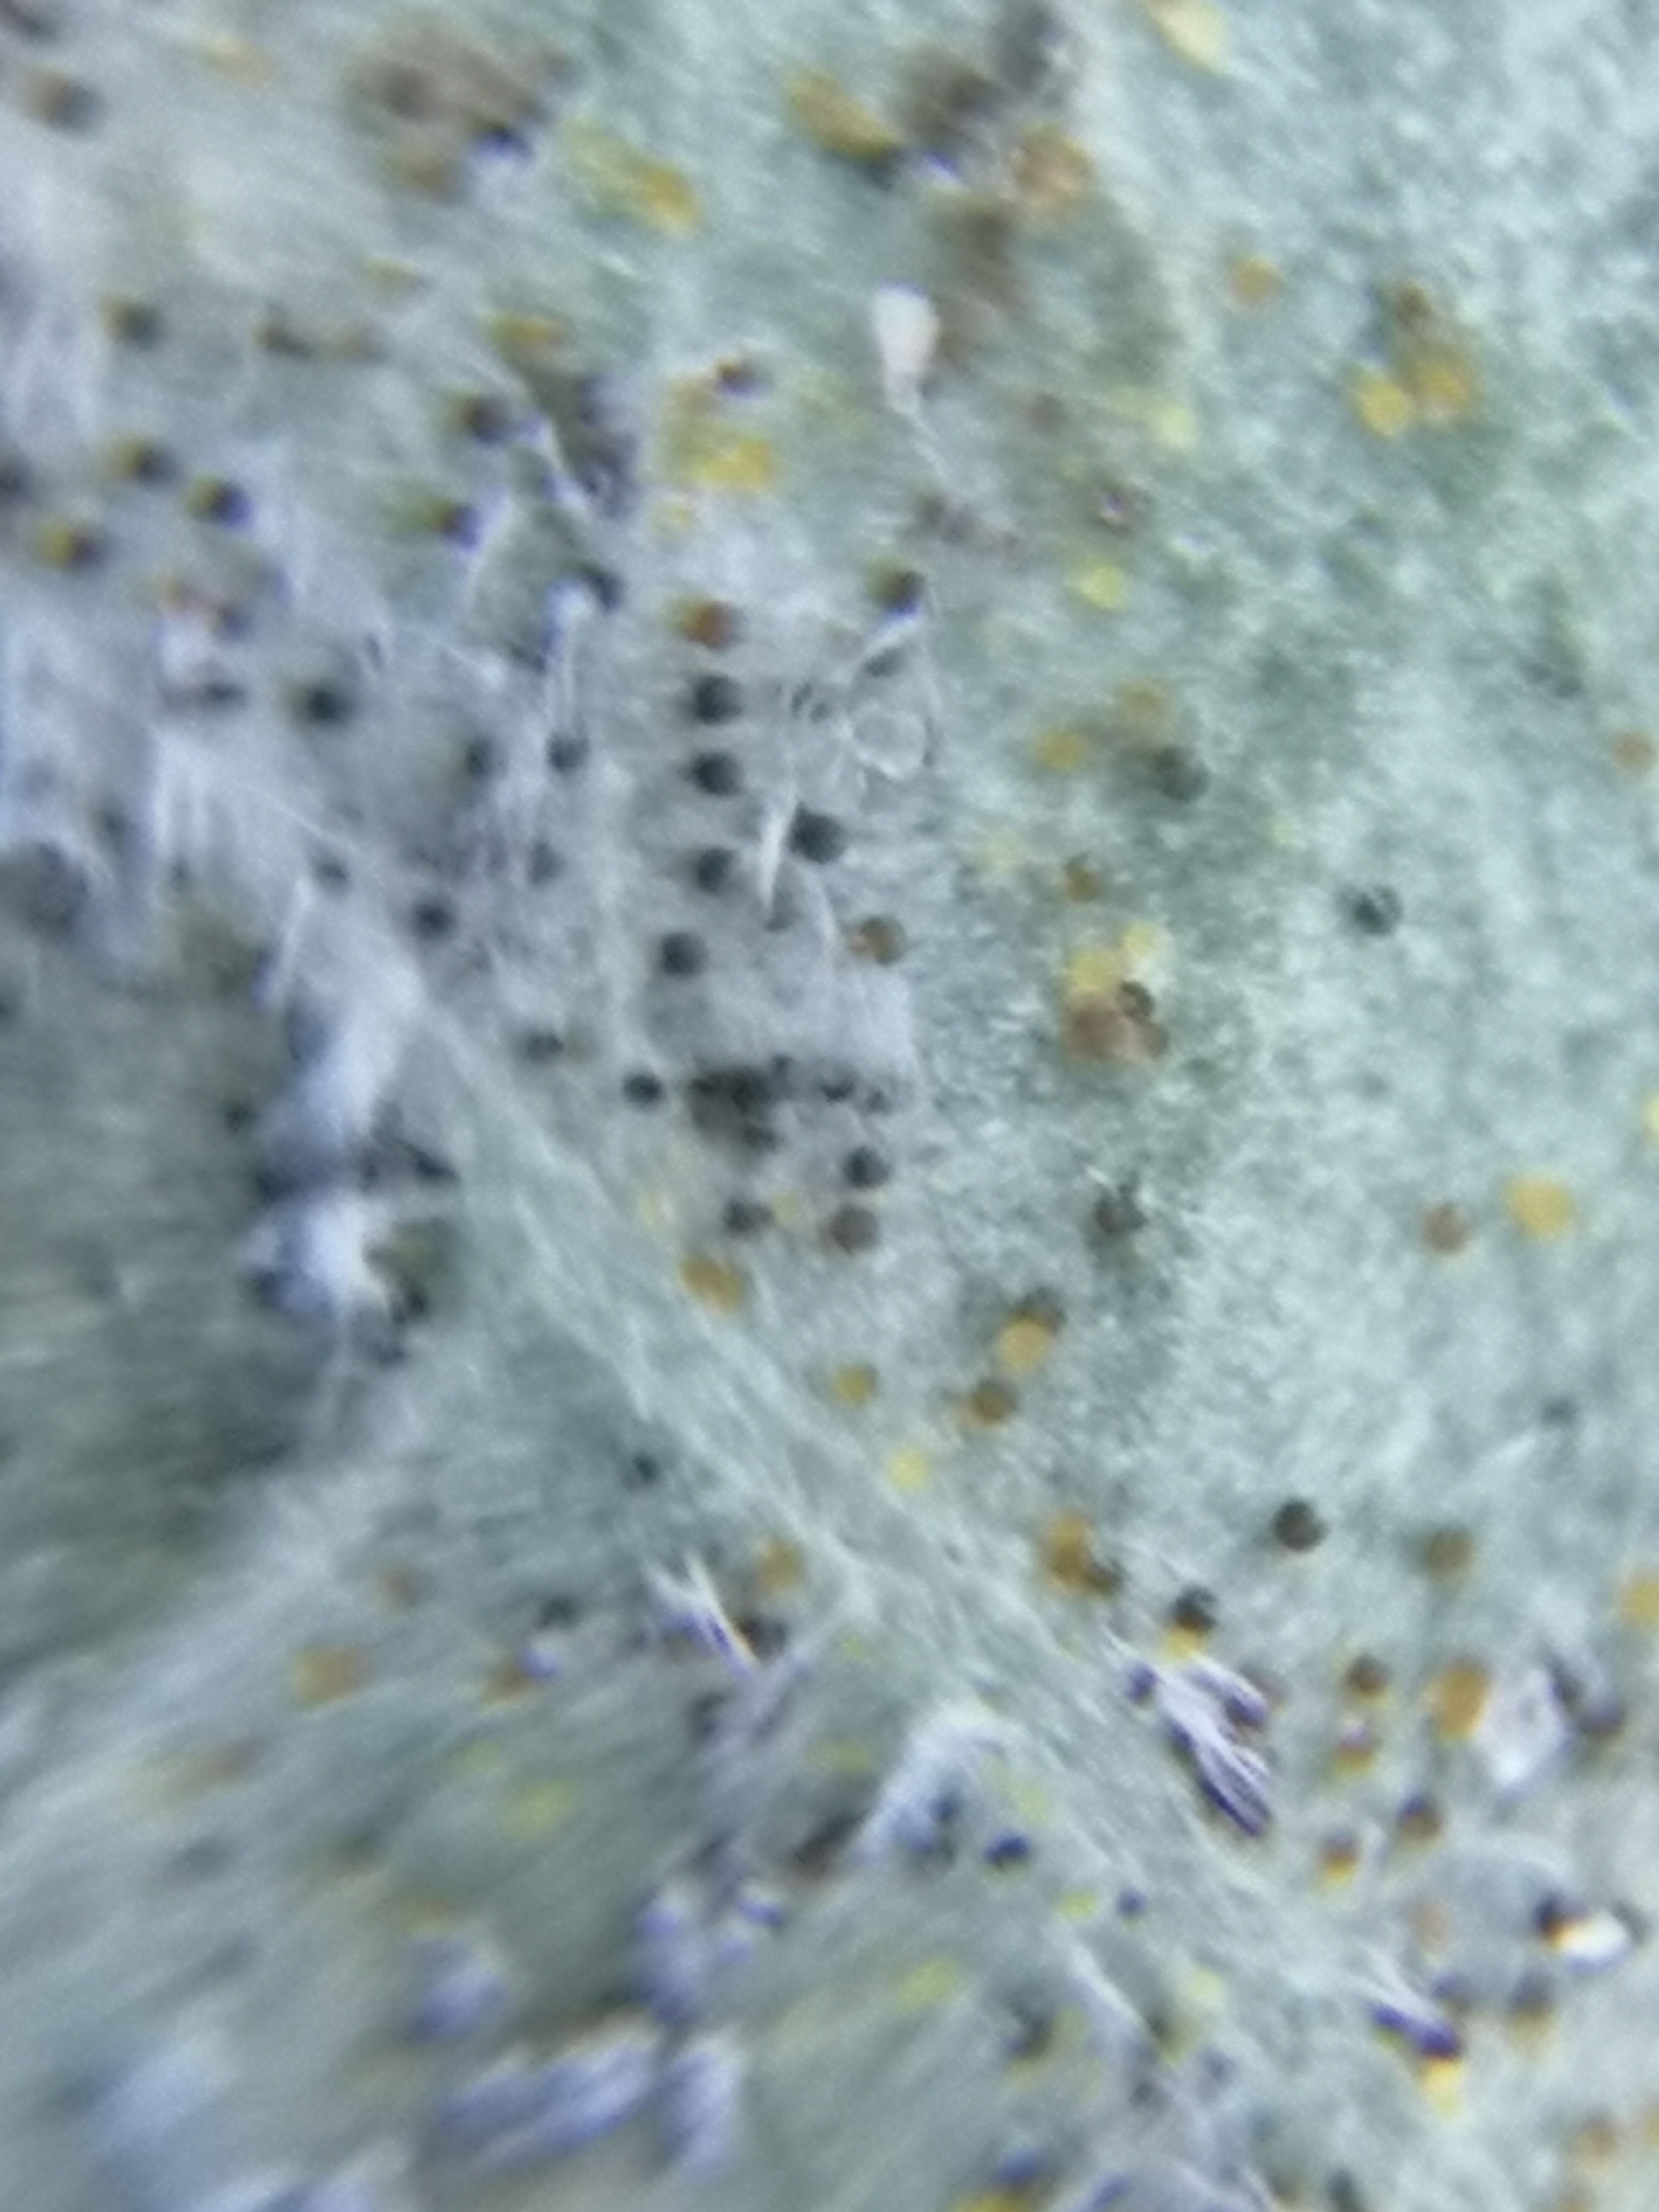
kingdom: Fungi
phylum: Ascomycota
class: Leotiomycetes
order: Helotiales
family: Erysiphaceae
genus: Erysiphe
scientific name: Erysiphe euonymi
